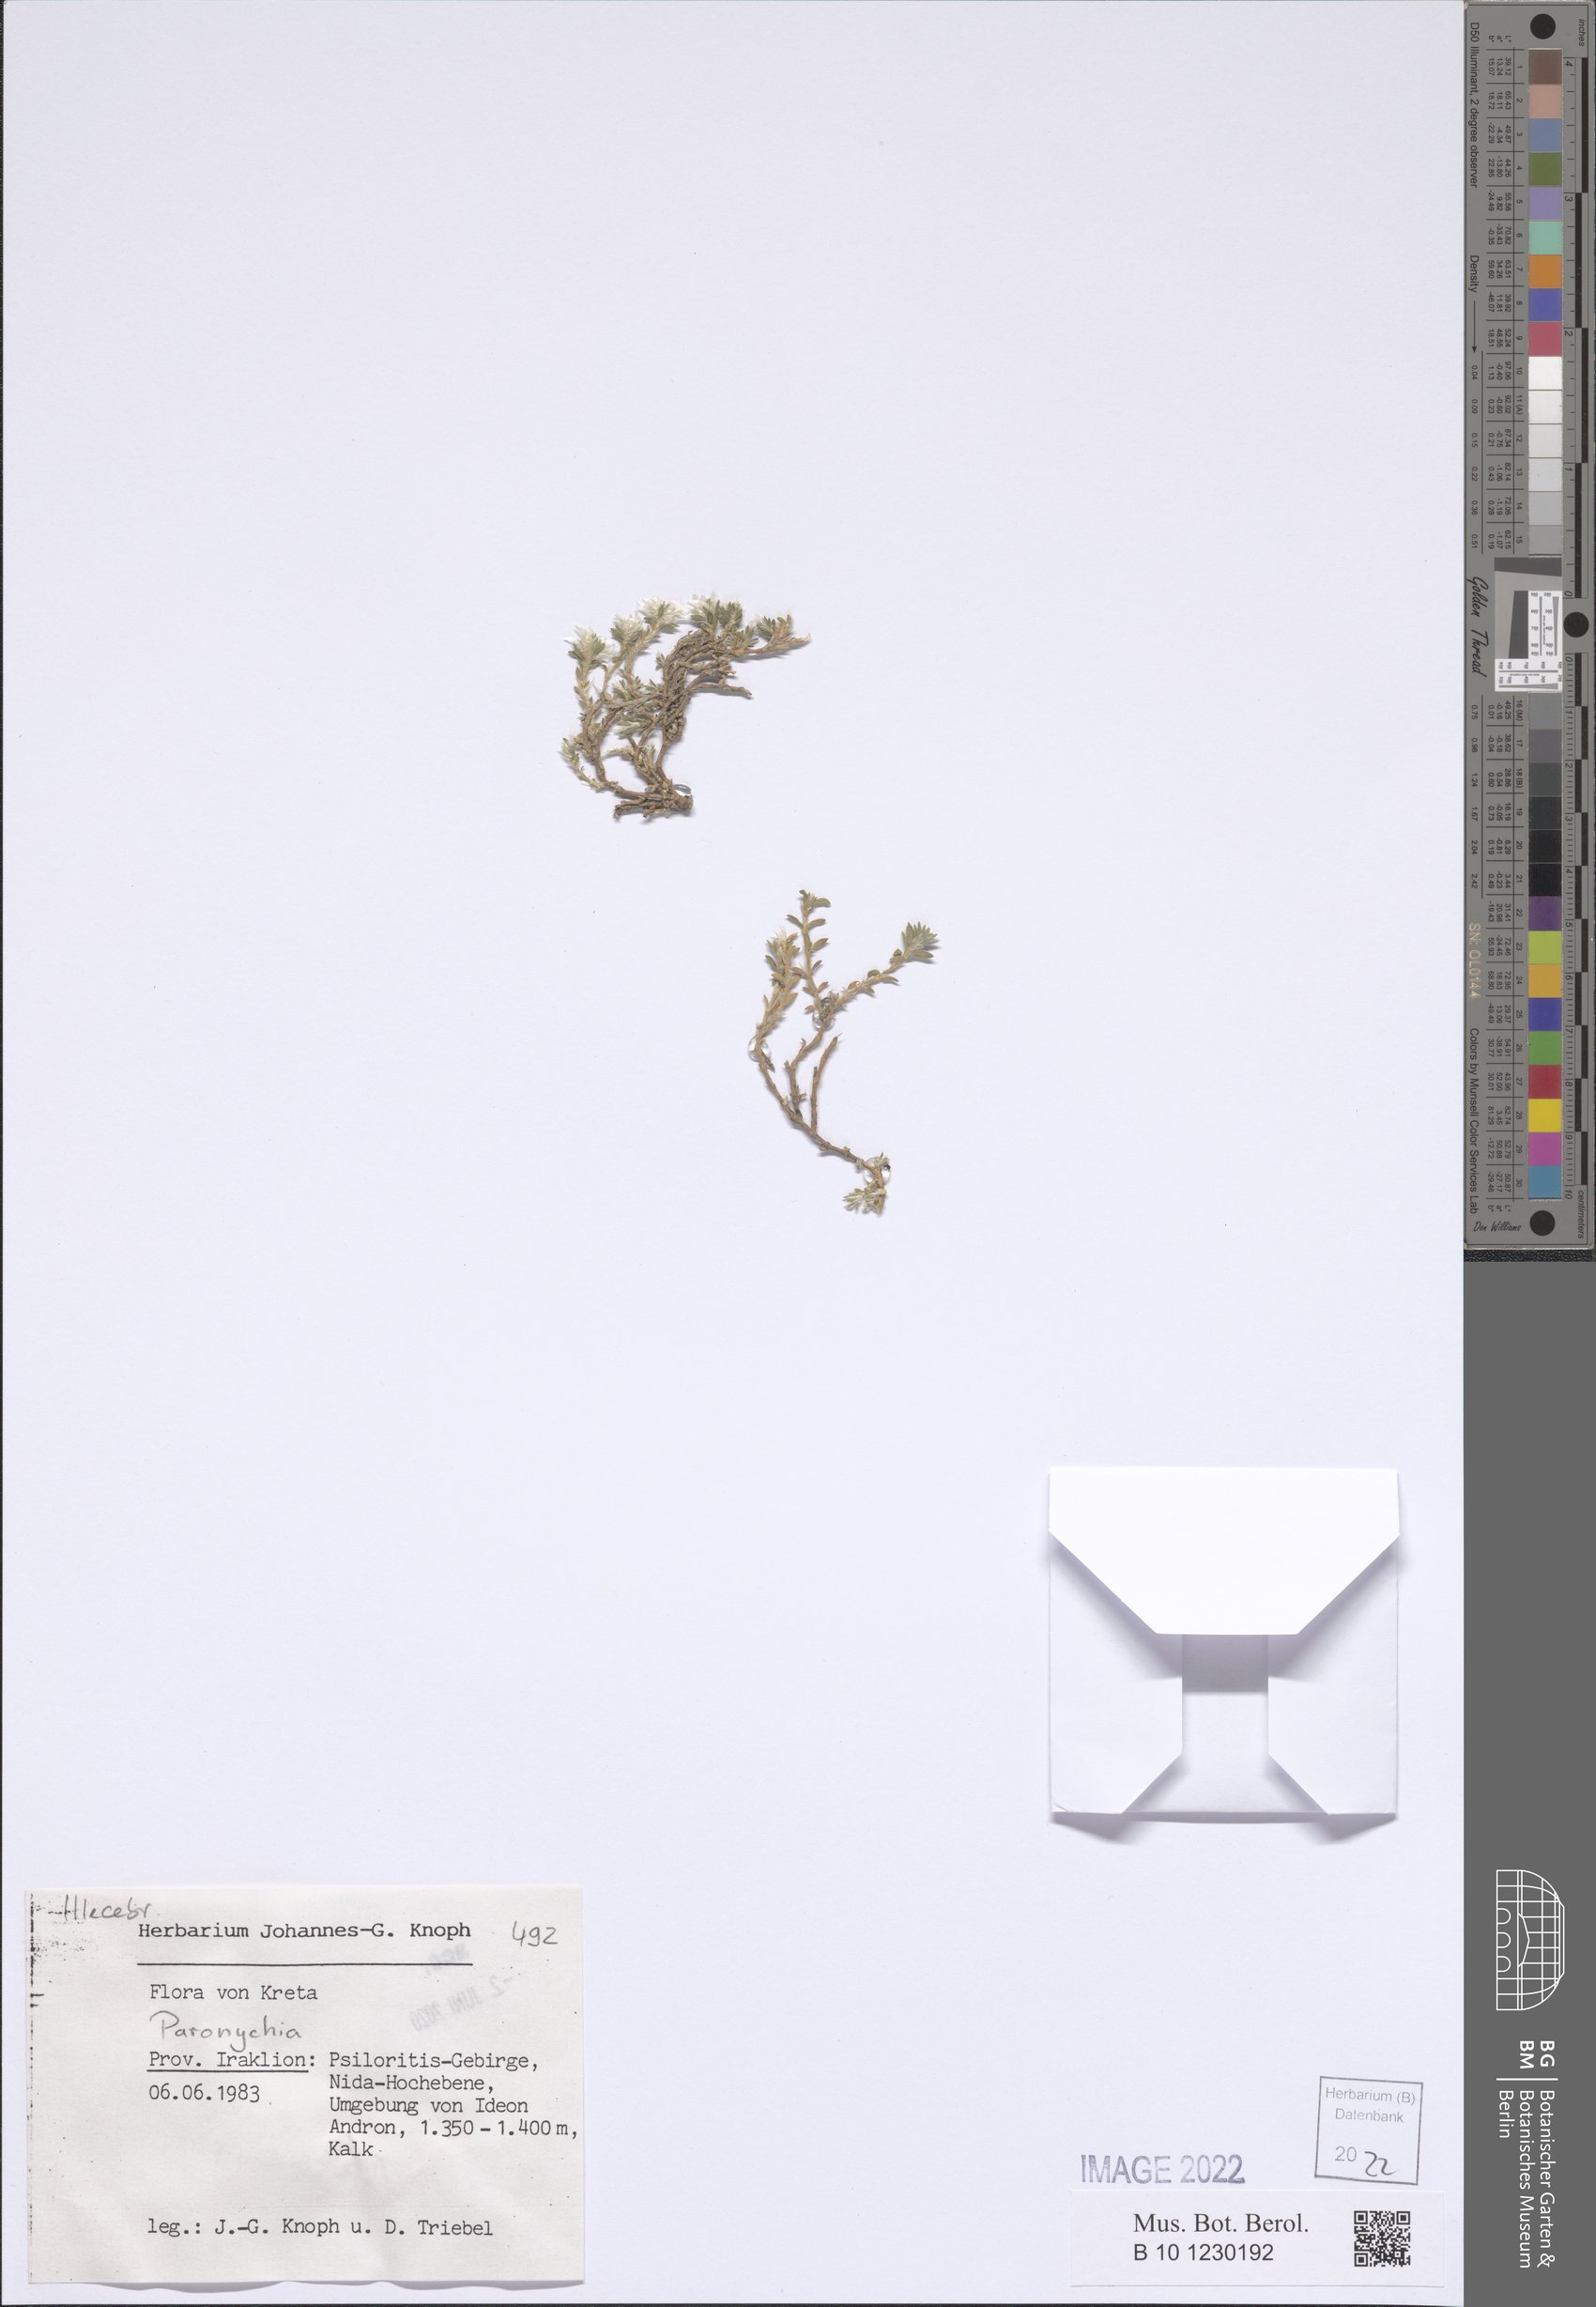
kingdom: Plantae
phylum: Tracheophyta
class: Magnoliopsida
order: Caryophyllales
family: Caryophyllaceae
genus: Paronychia
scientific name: Paronychia
